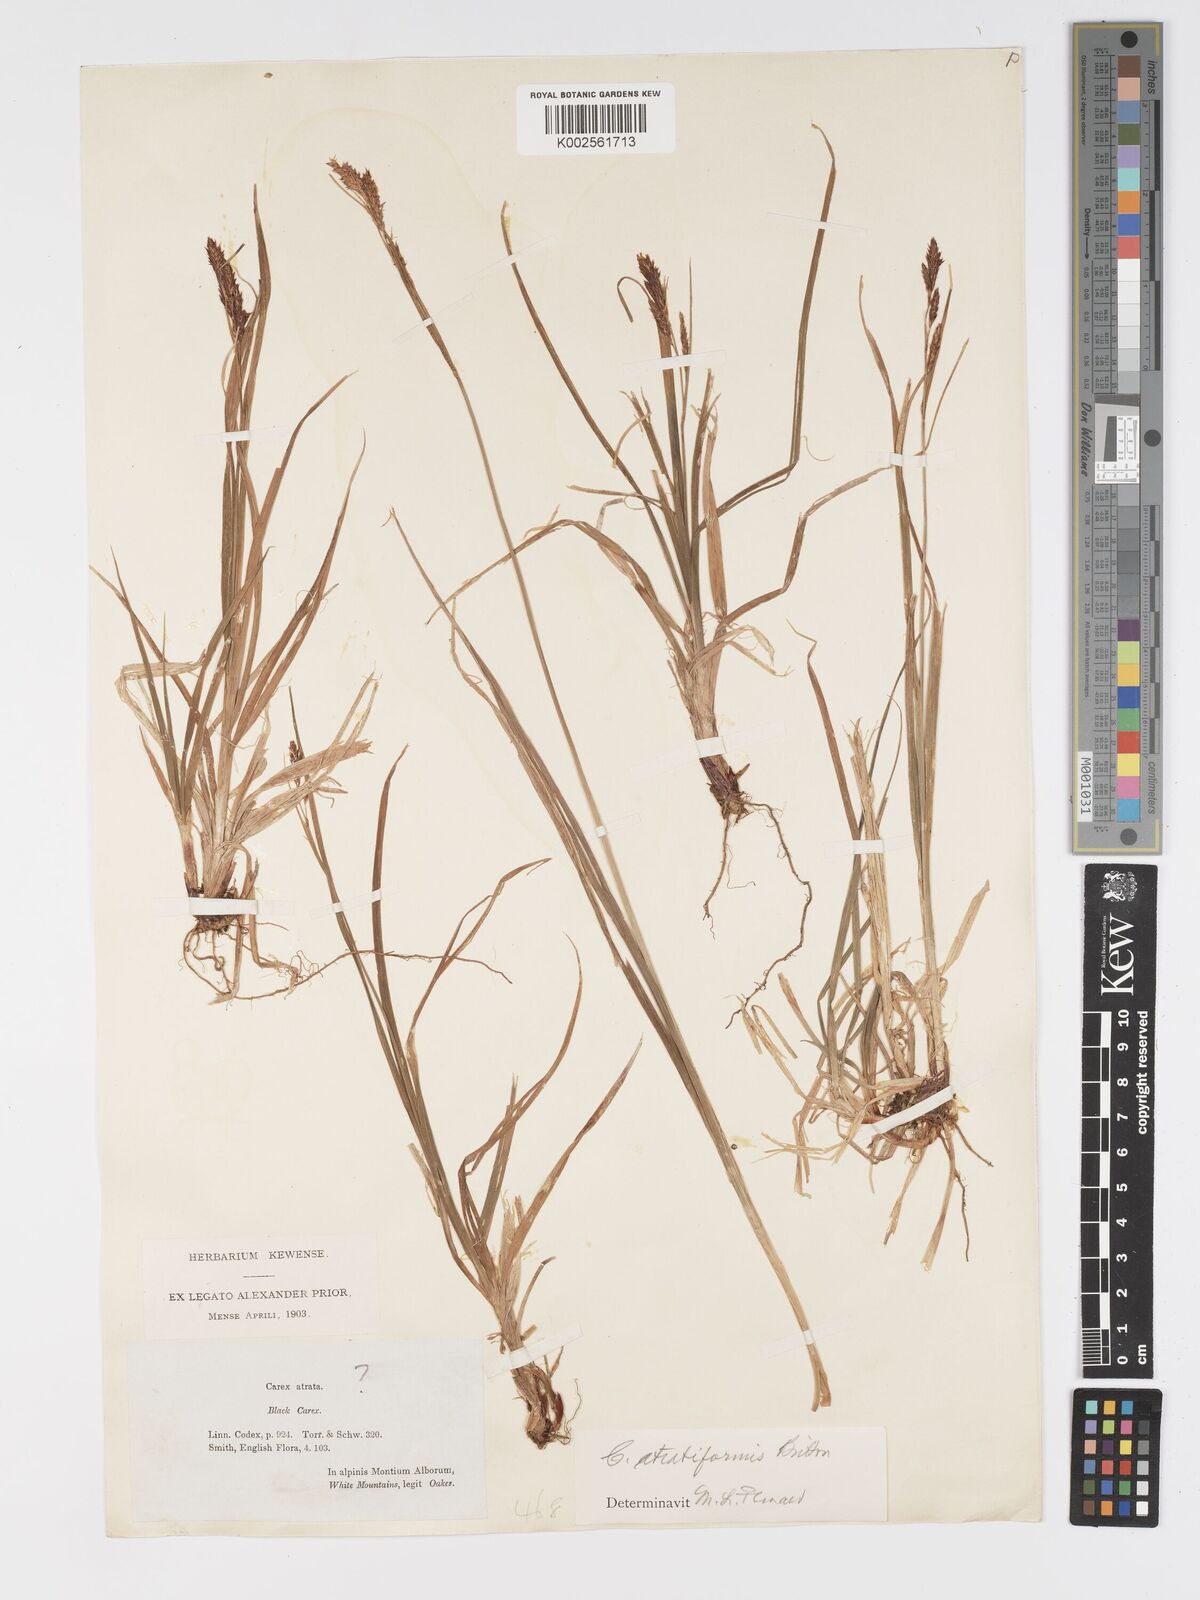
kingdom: Plantae
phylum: Tracheophyta
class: Liliopsida
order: Poales
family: Cyperaceae
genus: Carex
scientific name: Carex atratiformis
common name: Black sedge
